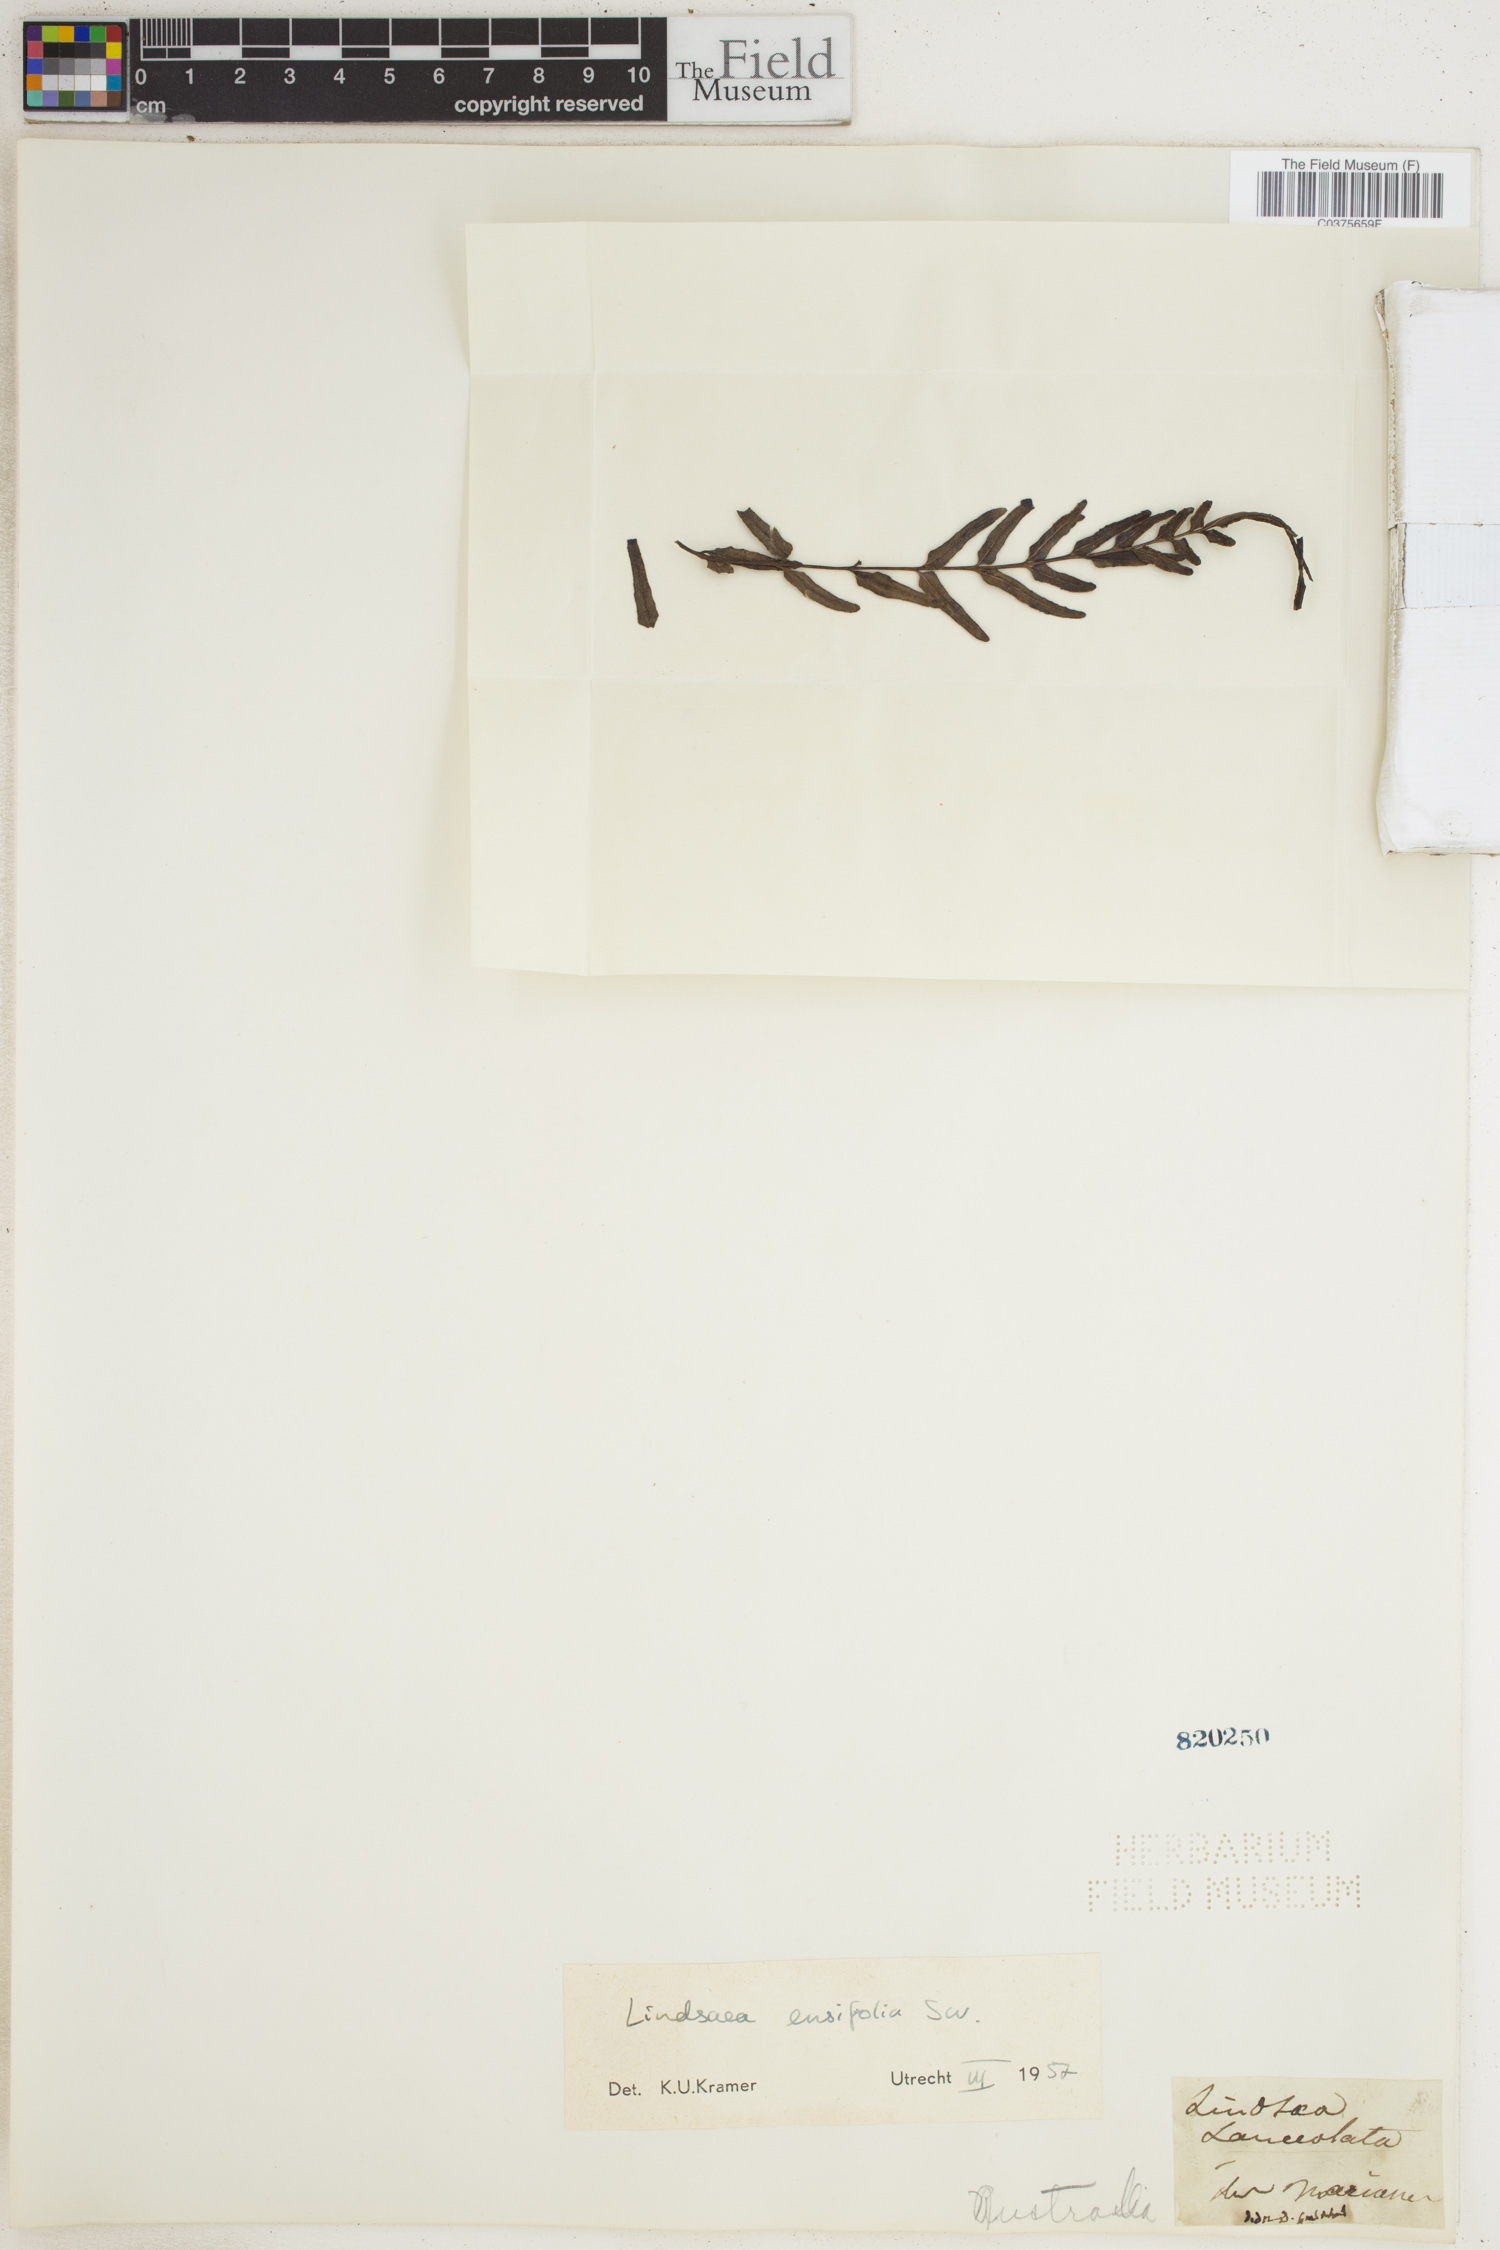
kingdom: Plantae
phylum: Tracheophyta
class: Polypodiopsida
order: Polypodiales
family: Lindsaeaceae
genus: Lindsaea
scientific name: Lindsaea ensifolia
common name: Graceful necklace fern
